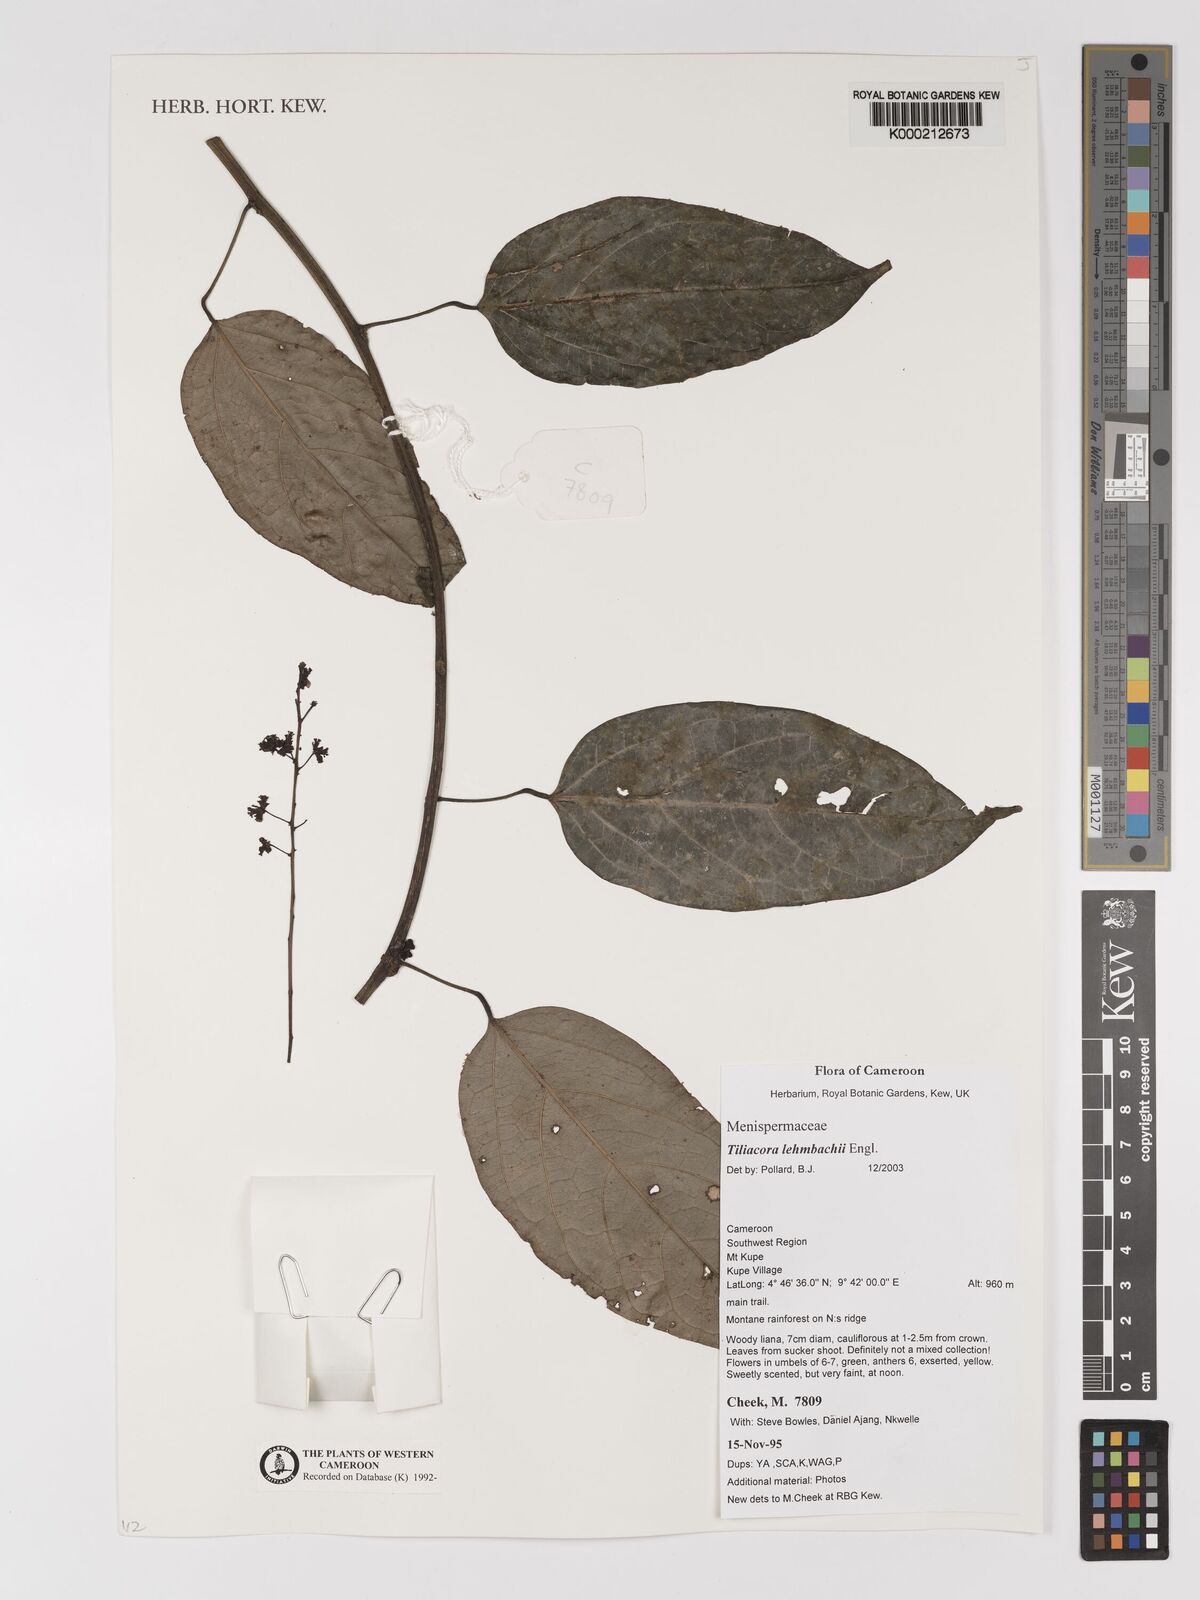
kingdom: Plantae
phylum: Tracheophyta
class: Magnoliopsida
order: Ranunculales
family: Menispermaceae
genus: Tiliacora
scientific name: Tiliacora lehmbachii
